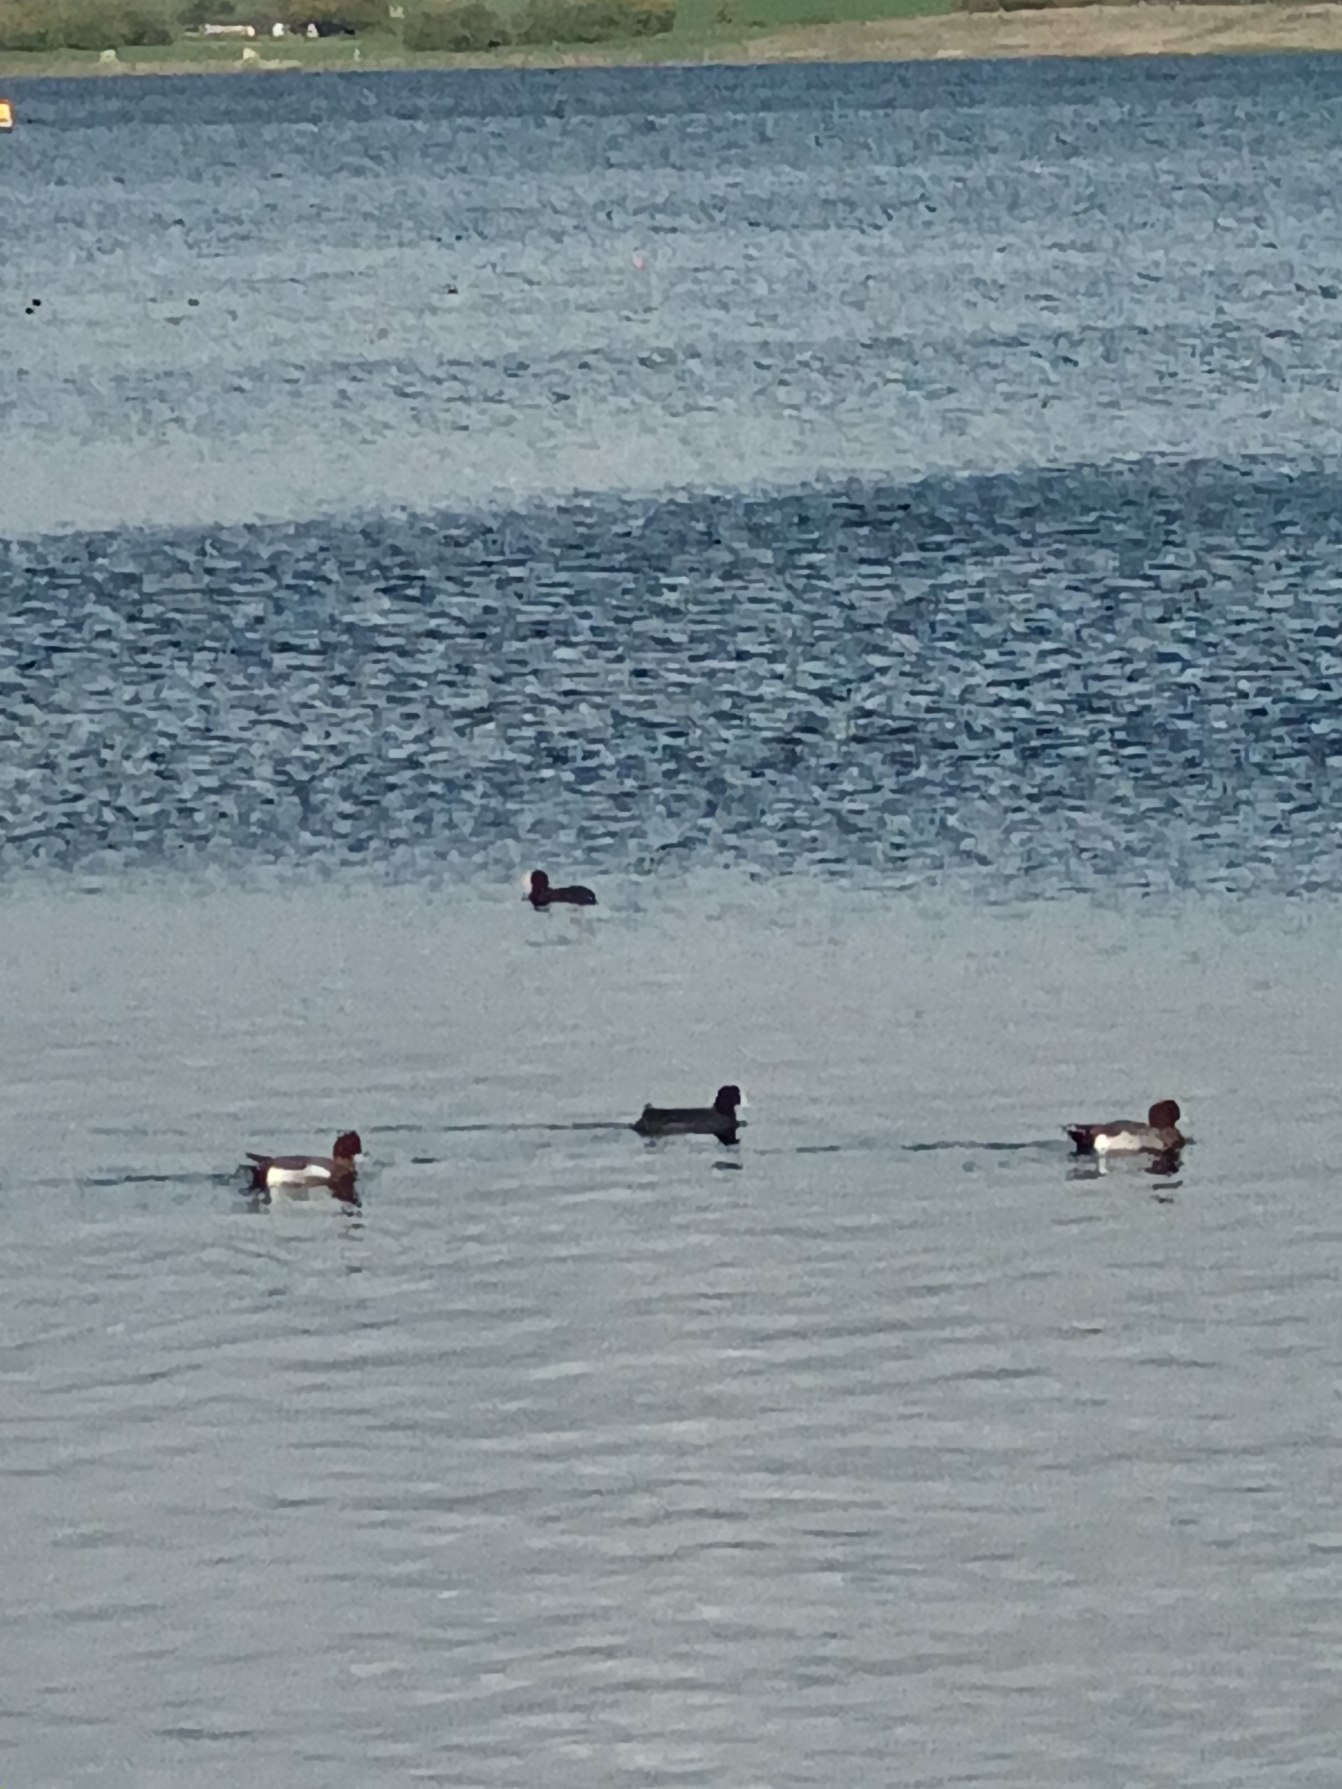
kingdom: Animalia
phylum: Chordata
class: Aves
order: Anseriformes
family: Anatidae
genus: Mareca
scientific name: Mareca penelope
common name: Pibeand
